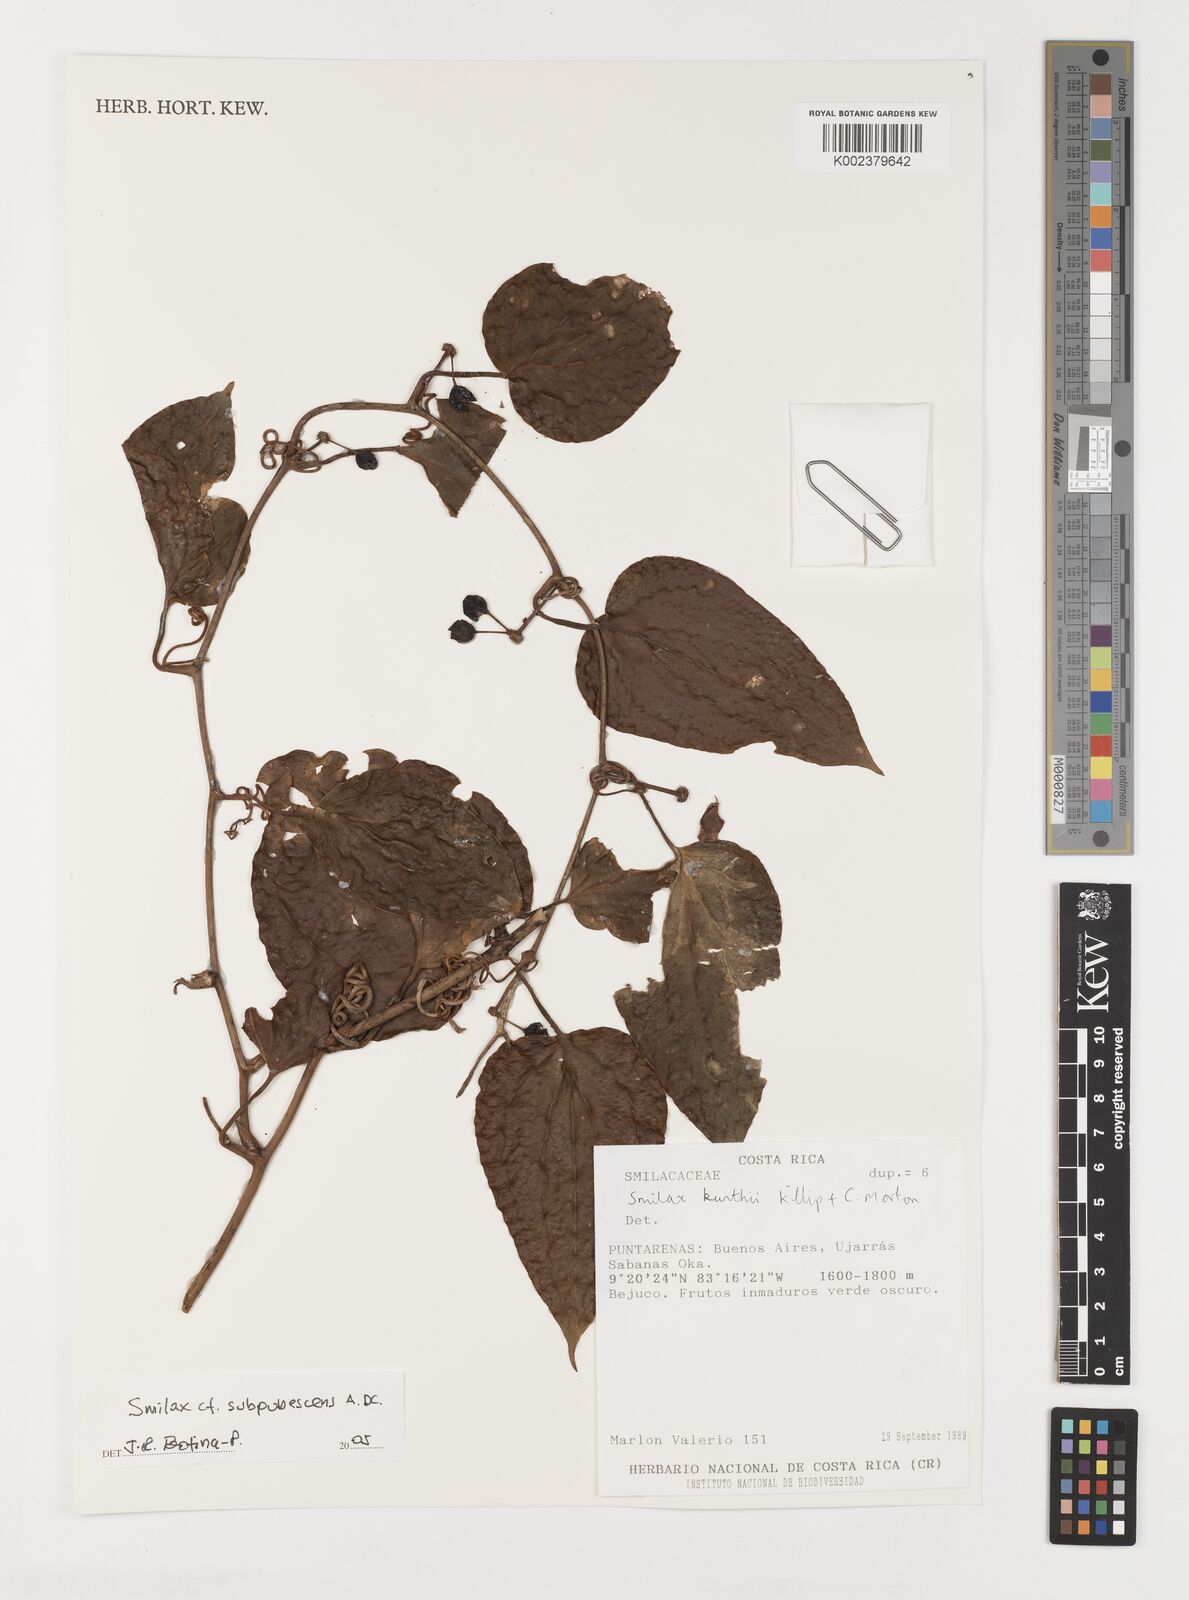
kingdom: Plantae
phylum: Tracheophyta
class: Liliopsida
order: Liliales
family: Smilacaceae
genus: Smilax
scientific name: Smilax subpubescens
